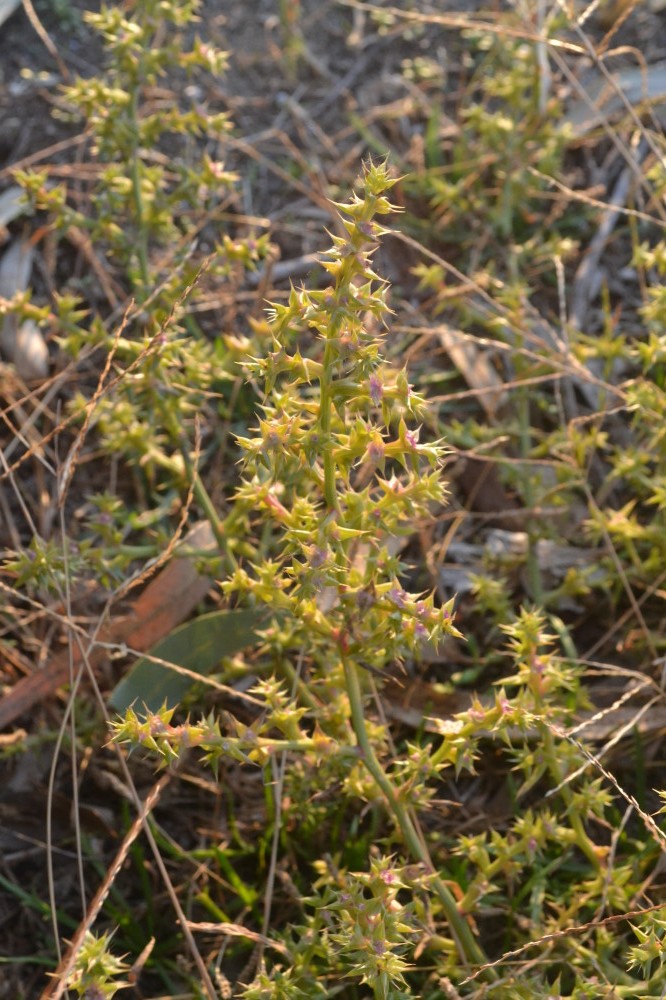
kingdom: Plantae
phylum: Tracheophyta
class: Magnoliopsida
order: Caryophyllales
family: Amaranthaceae
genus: Salsola
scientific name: Salsola kali
